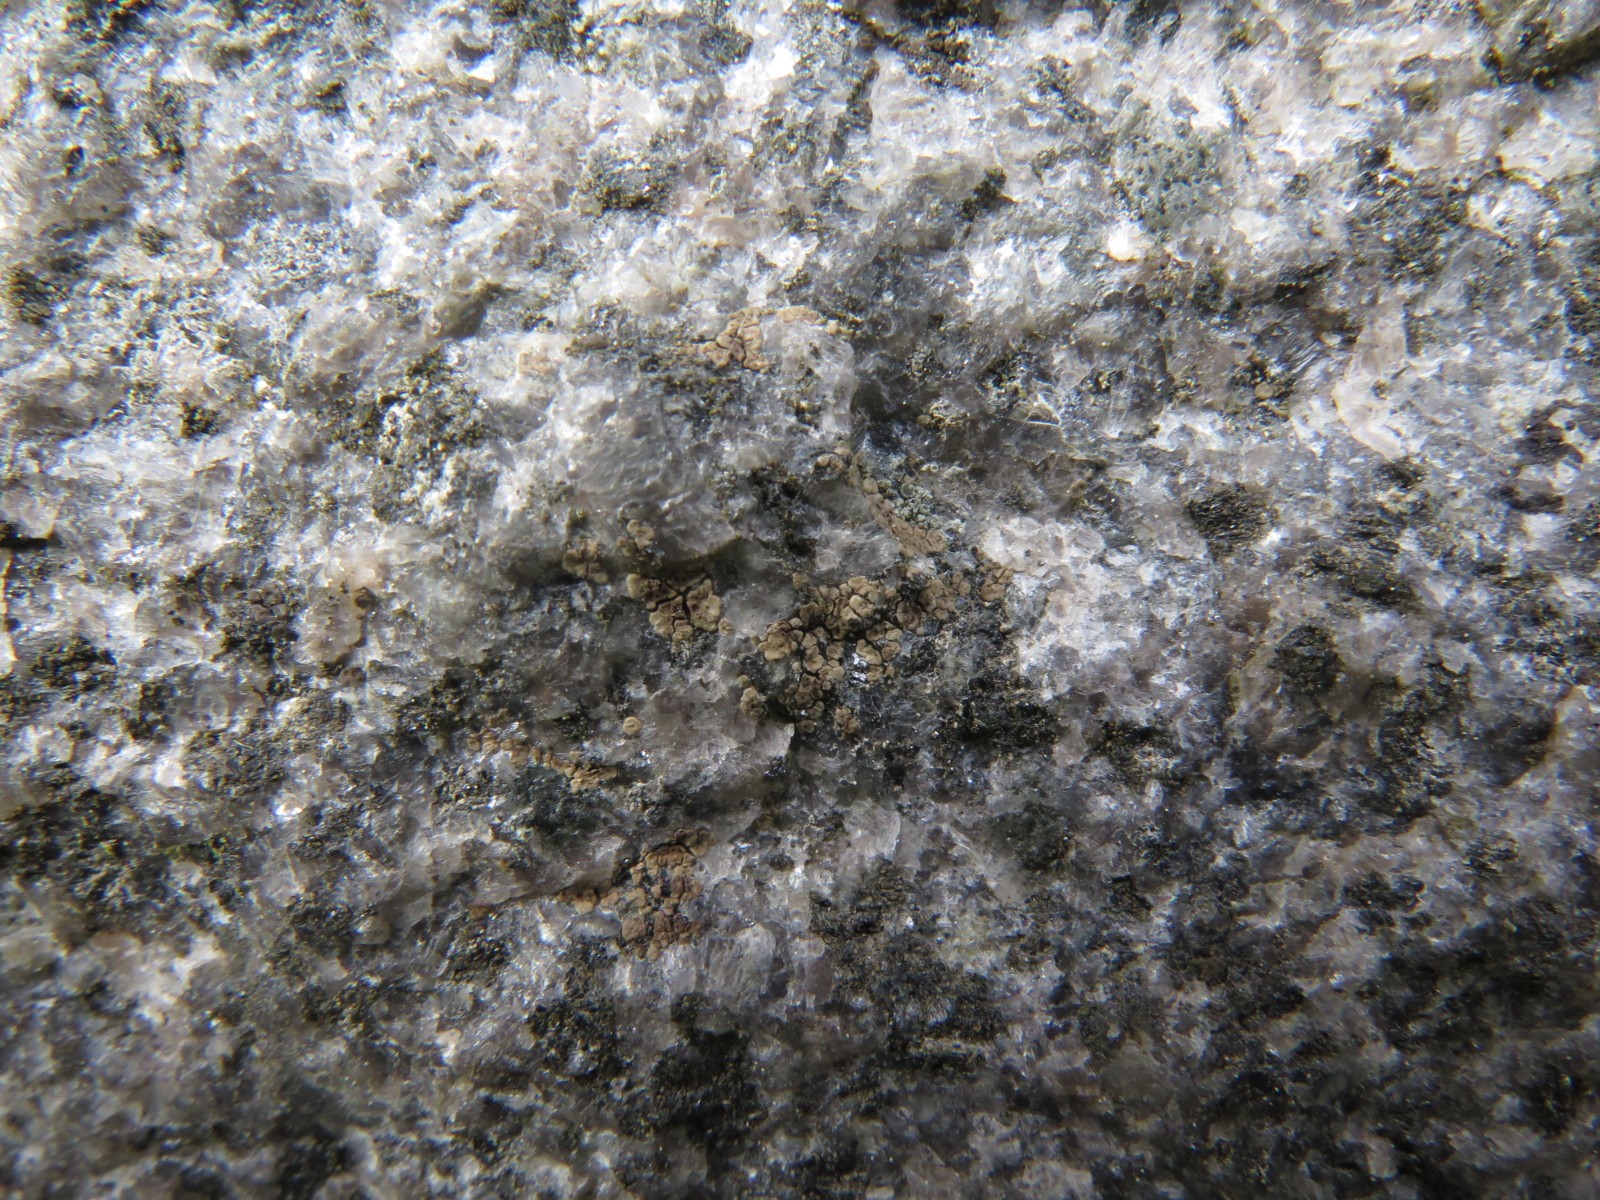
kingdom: Fungi
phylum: Ascomycota
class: Lecanoromycetes
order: Acarosporales
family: Acarosporaceae
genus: Acarospora
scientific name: Acarospora fuscata
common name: brun småsporelav
